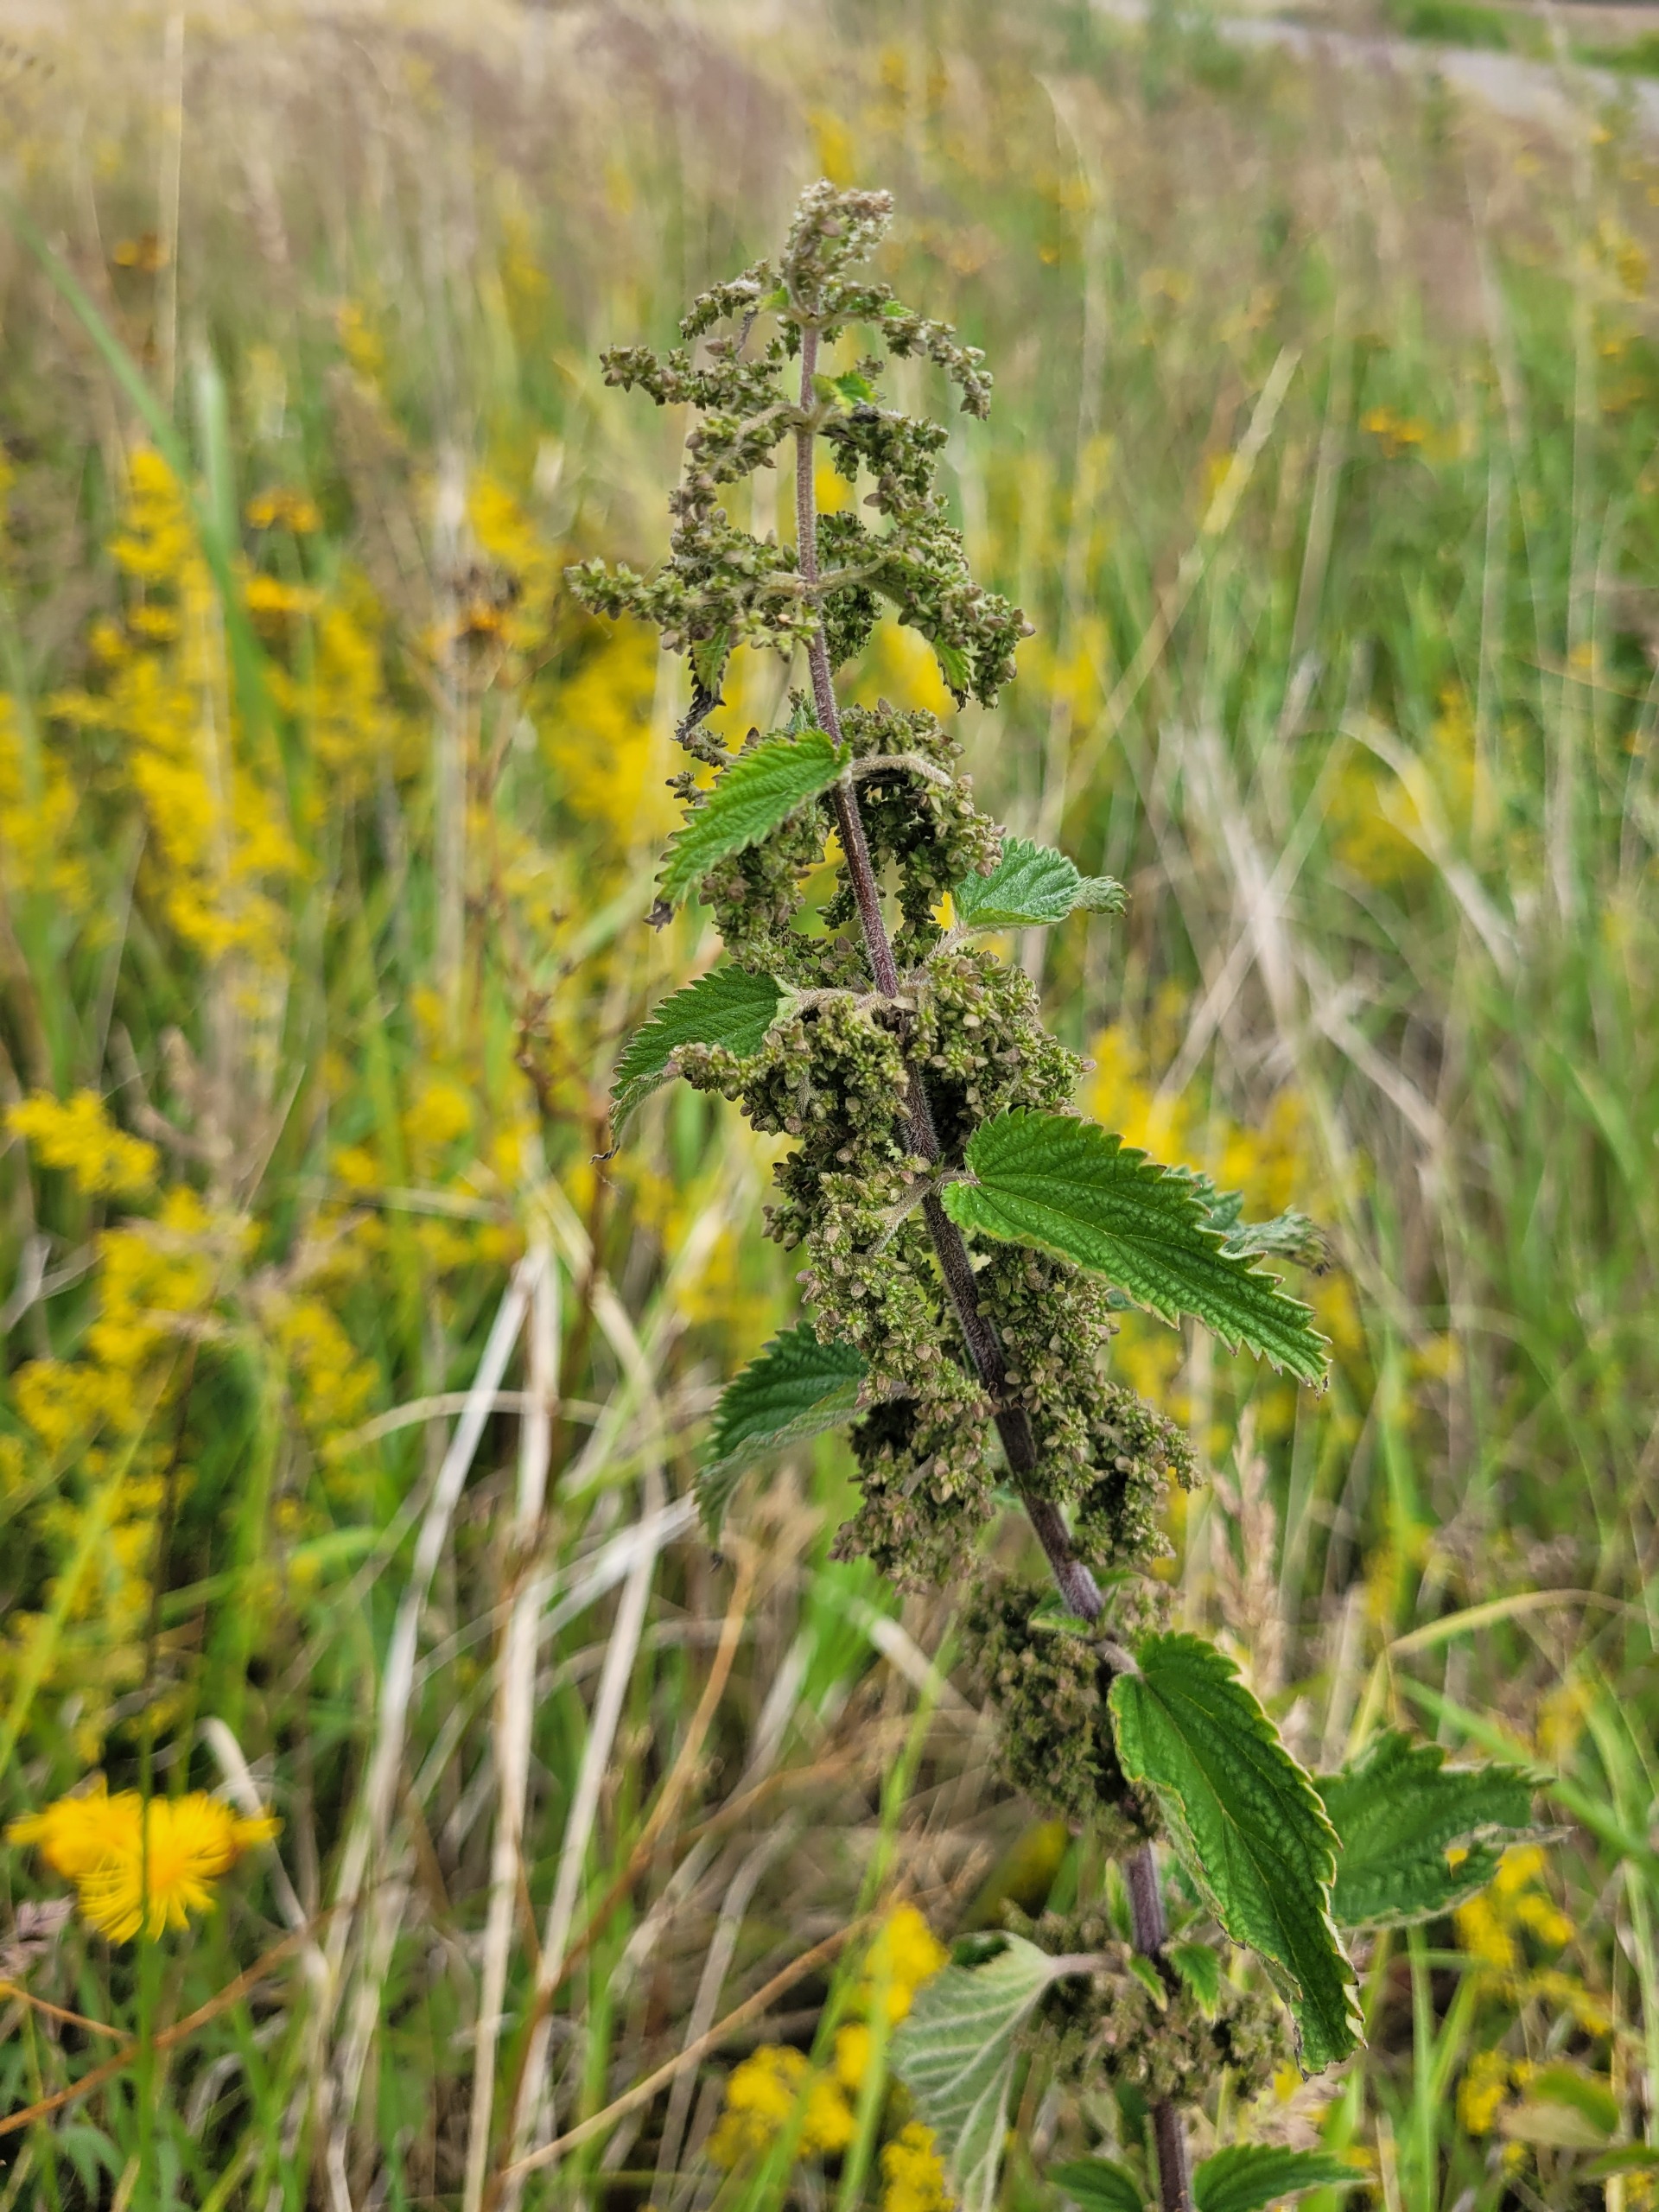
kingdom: Plantae
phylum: Tracheophyta
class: Magnoliopsida
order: Rosales
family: Urticaceae
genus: Urtica
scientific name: Urtica dioica
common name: Stor nælde
